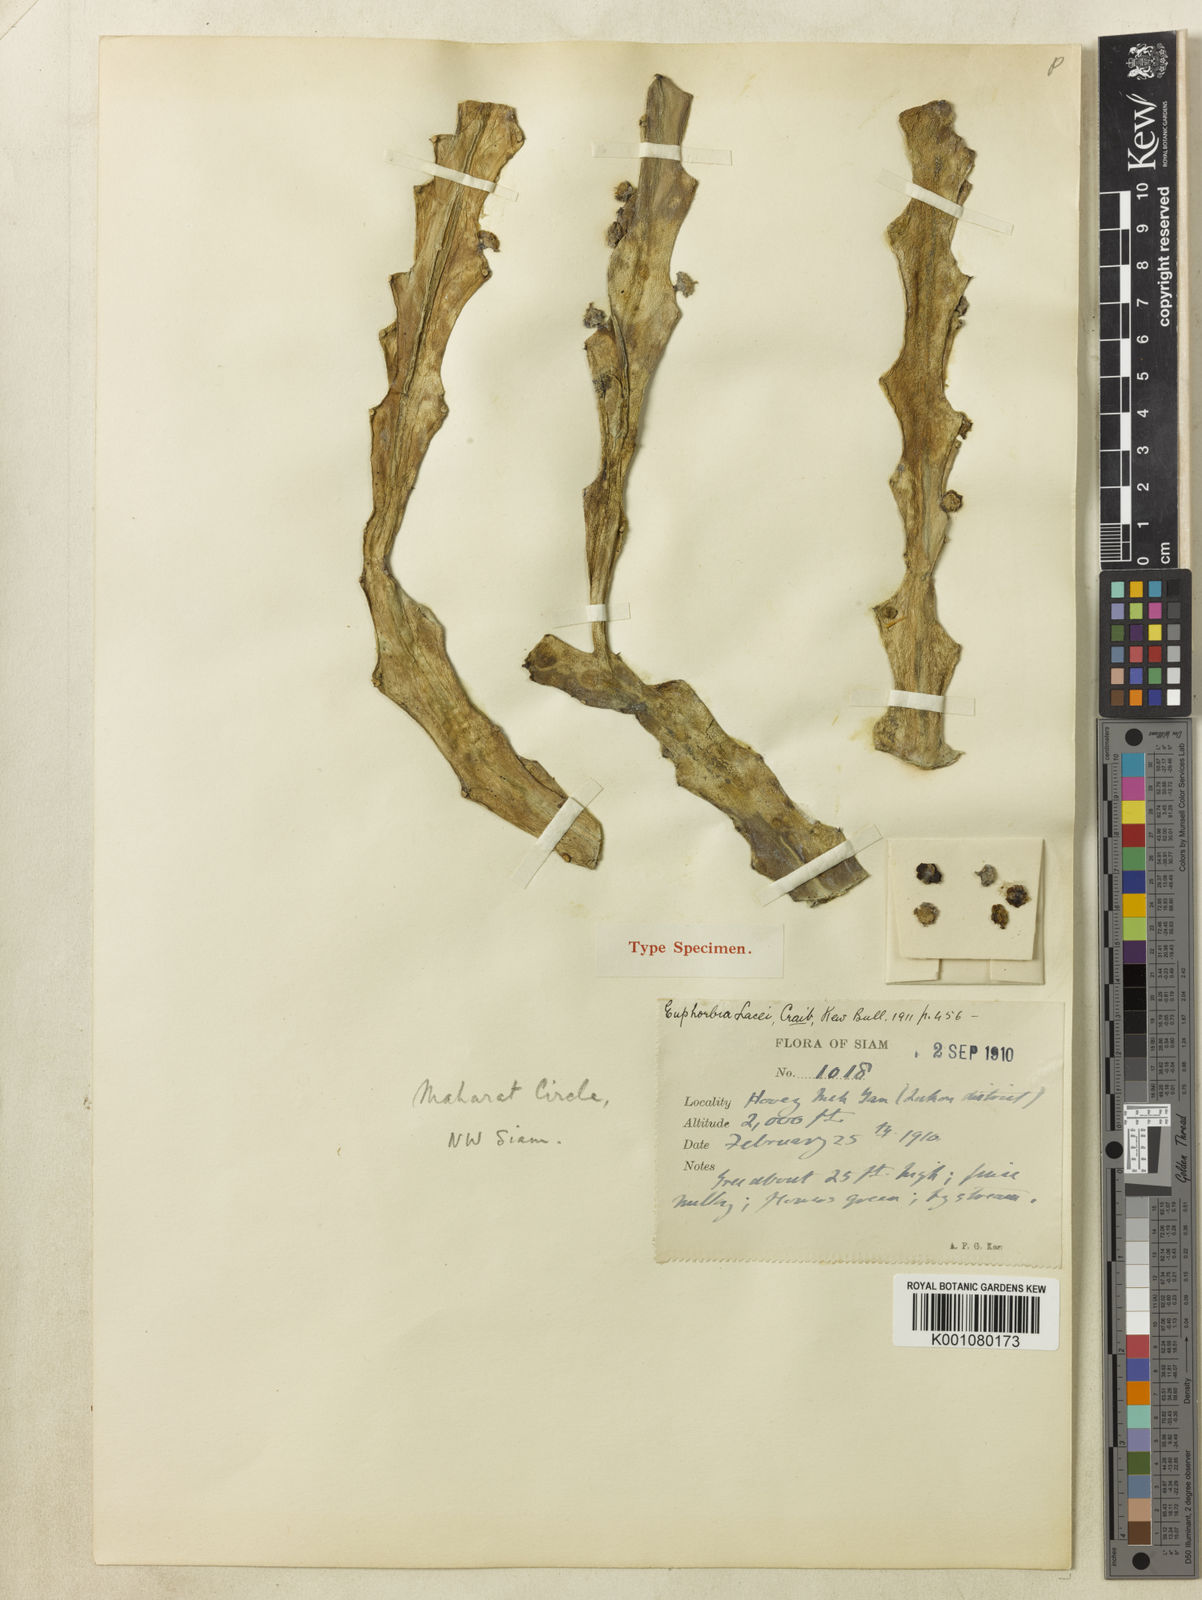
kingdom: Plantae
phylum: Tracheophyta
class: Magnoliopsida
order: Malpighiales
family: Euphorbiaceae
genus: Euphorbia
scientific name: Euphorbia lacei
